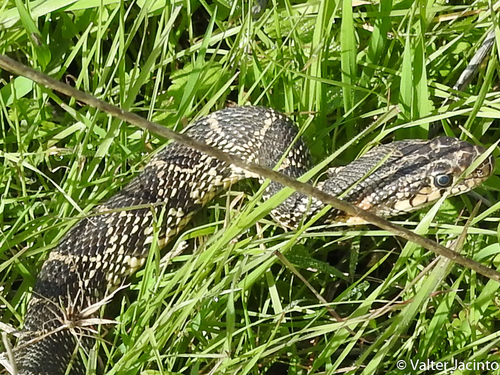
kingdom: Animalia
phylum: Chordata
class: Squamata
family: Colubridae
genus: Hemorrhois
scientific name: Hemorrhois hippocrepis
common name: Horseshoe whip snake
